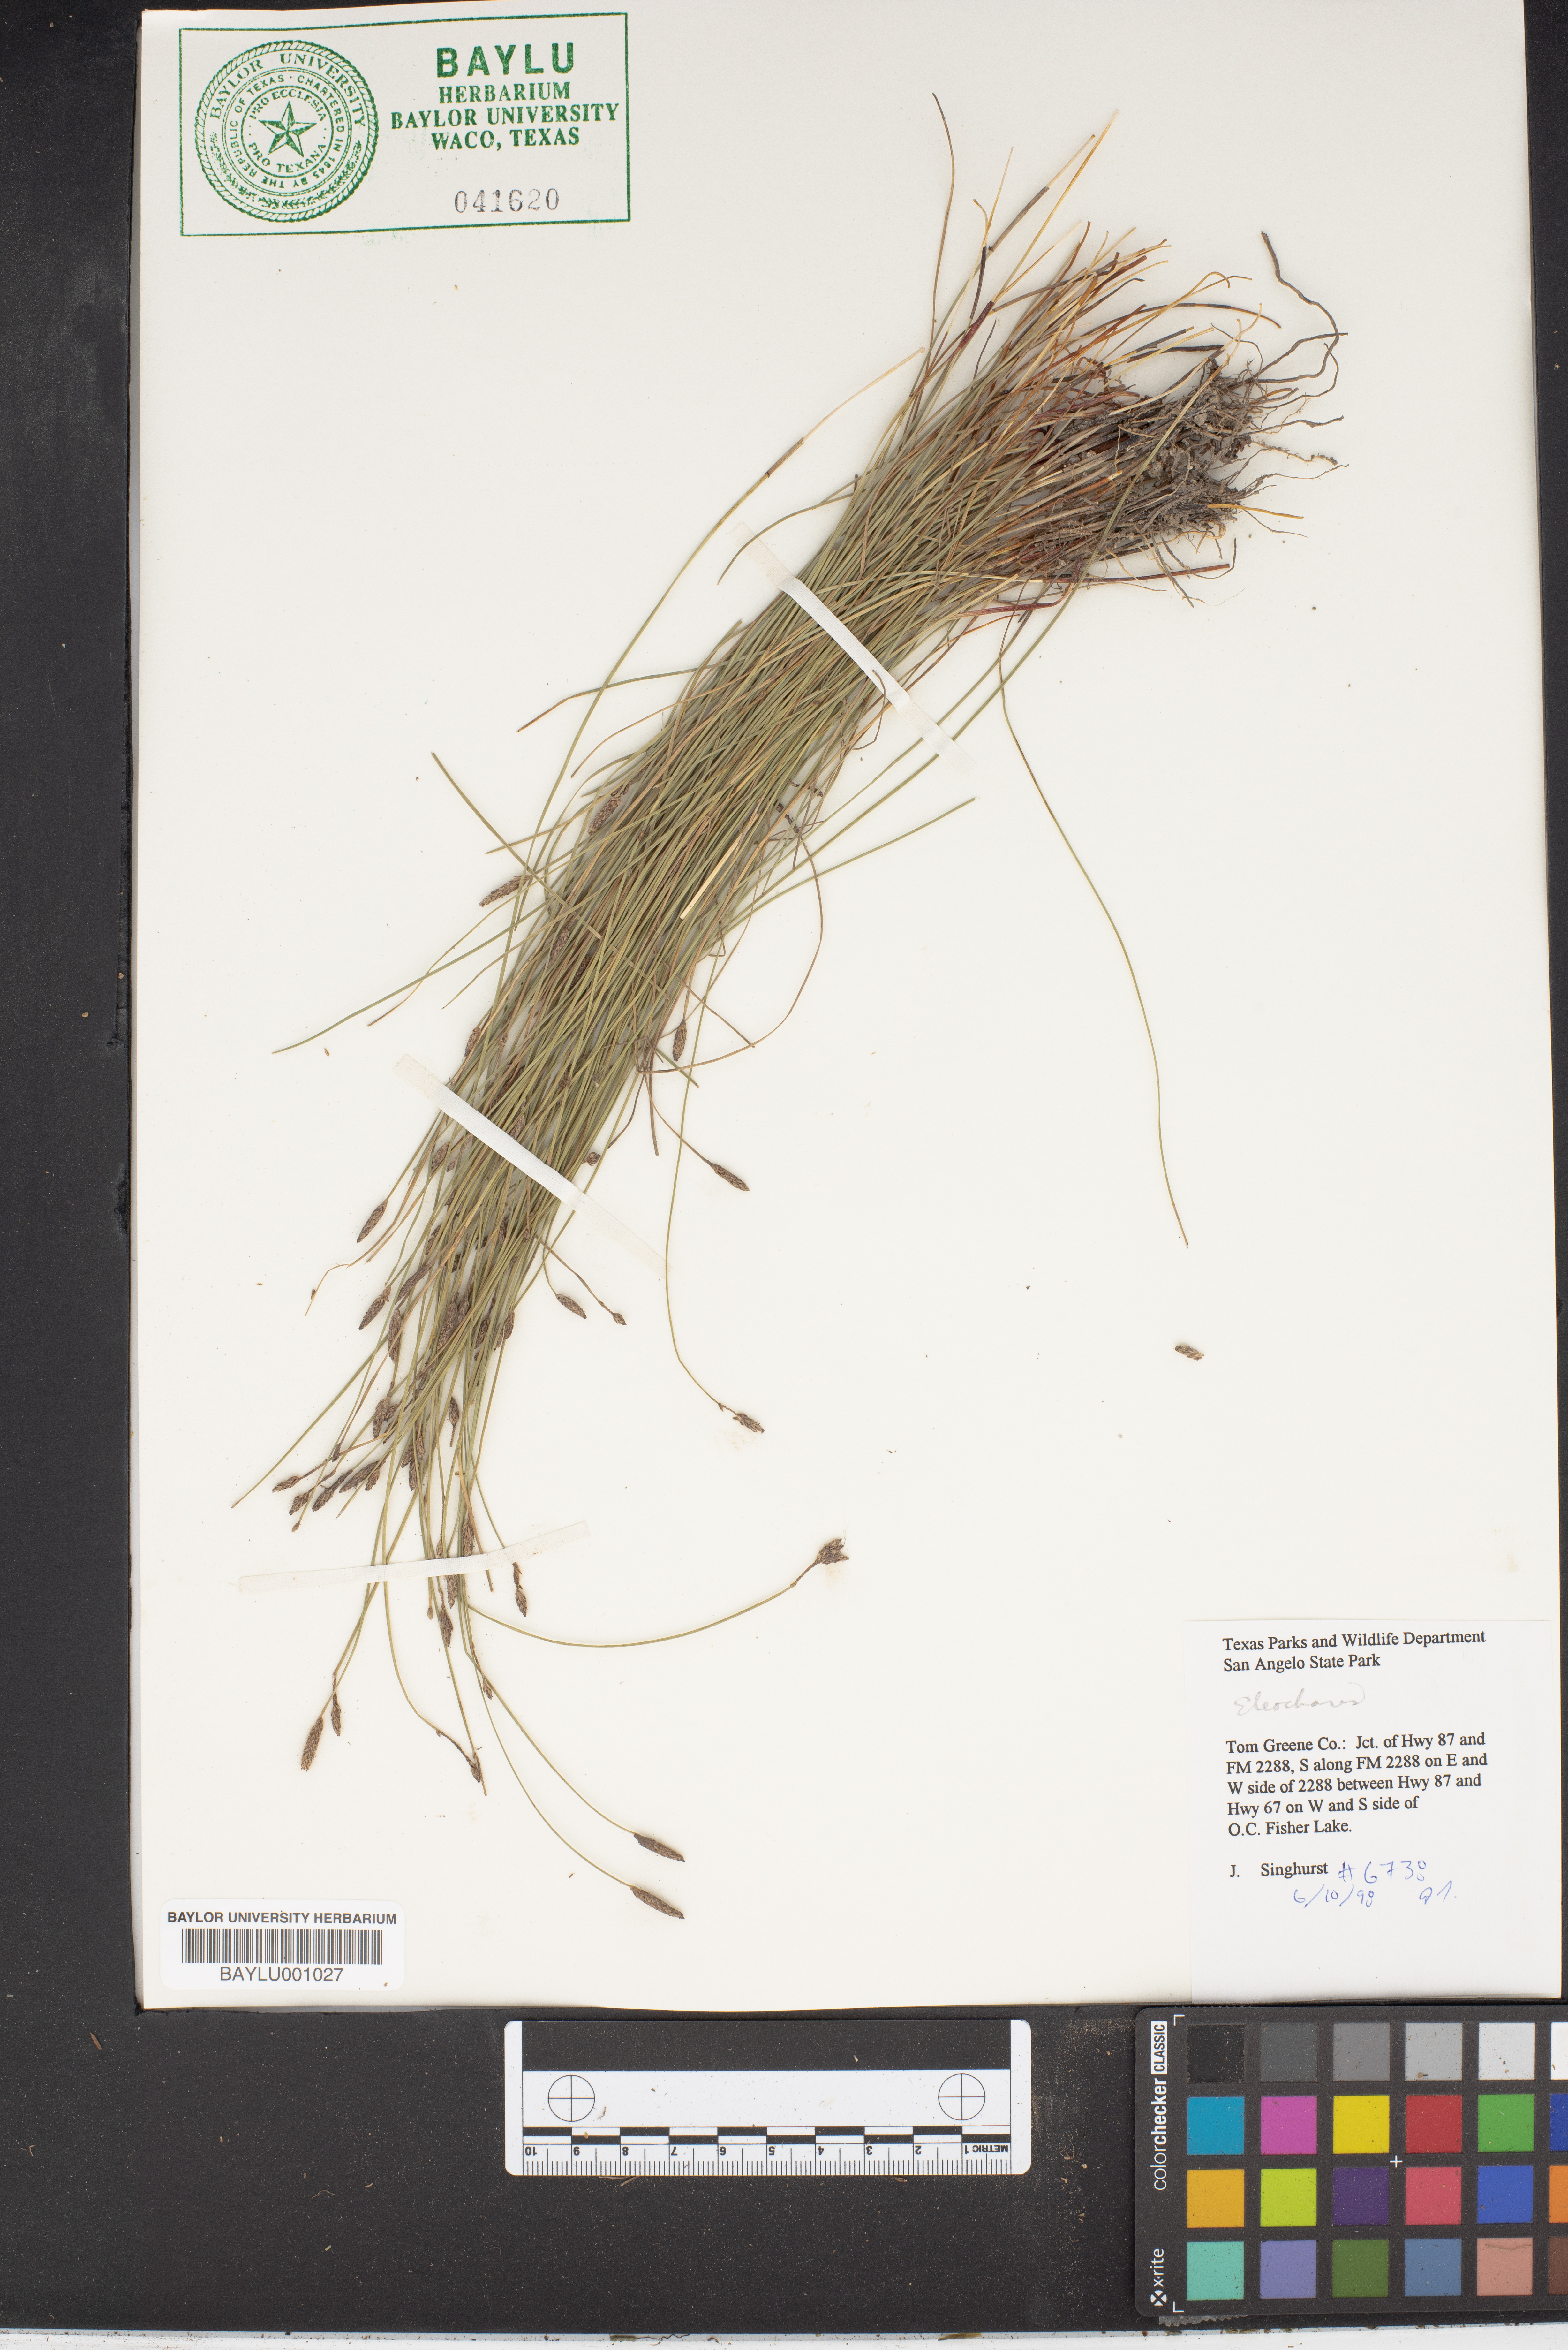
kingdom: Plantae
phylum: Tracheophyta
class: Liliopsida
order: Poales
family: Cyperaceae
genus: Eleocharis
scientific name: Eleocharis
